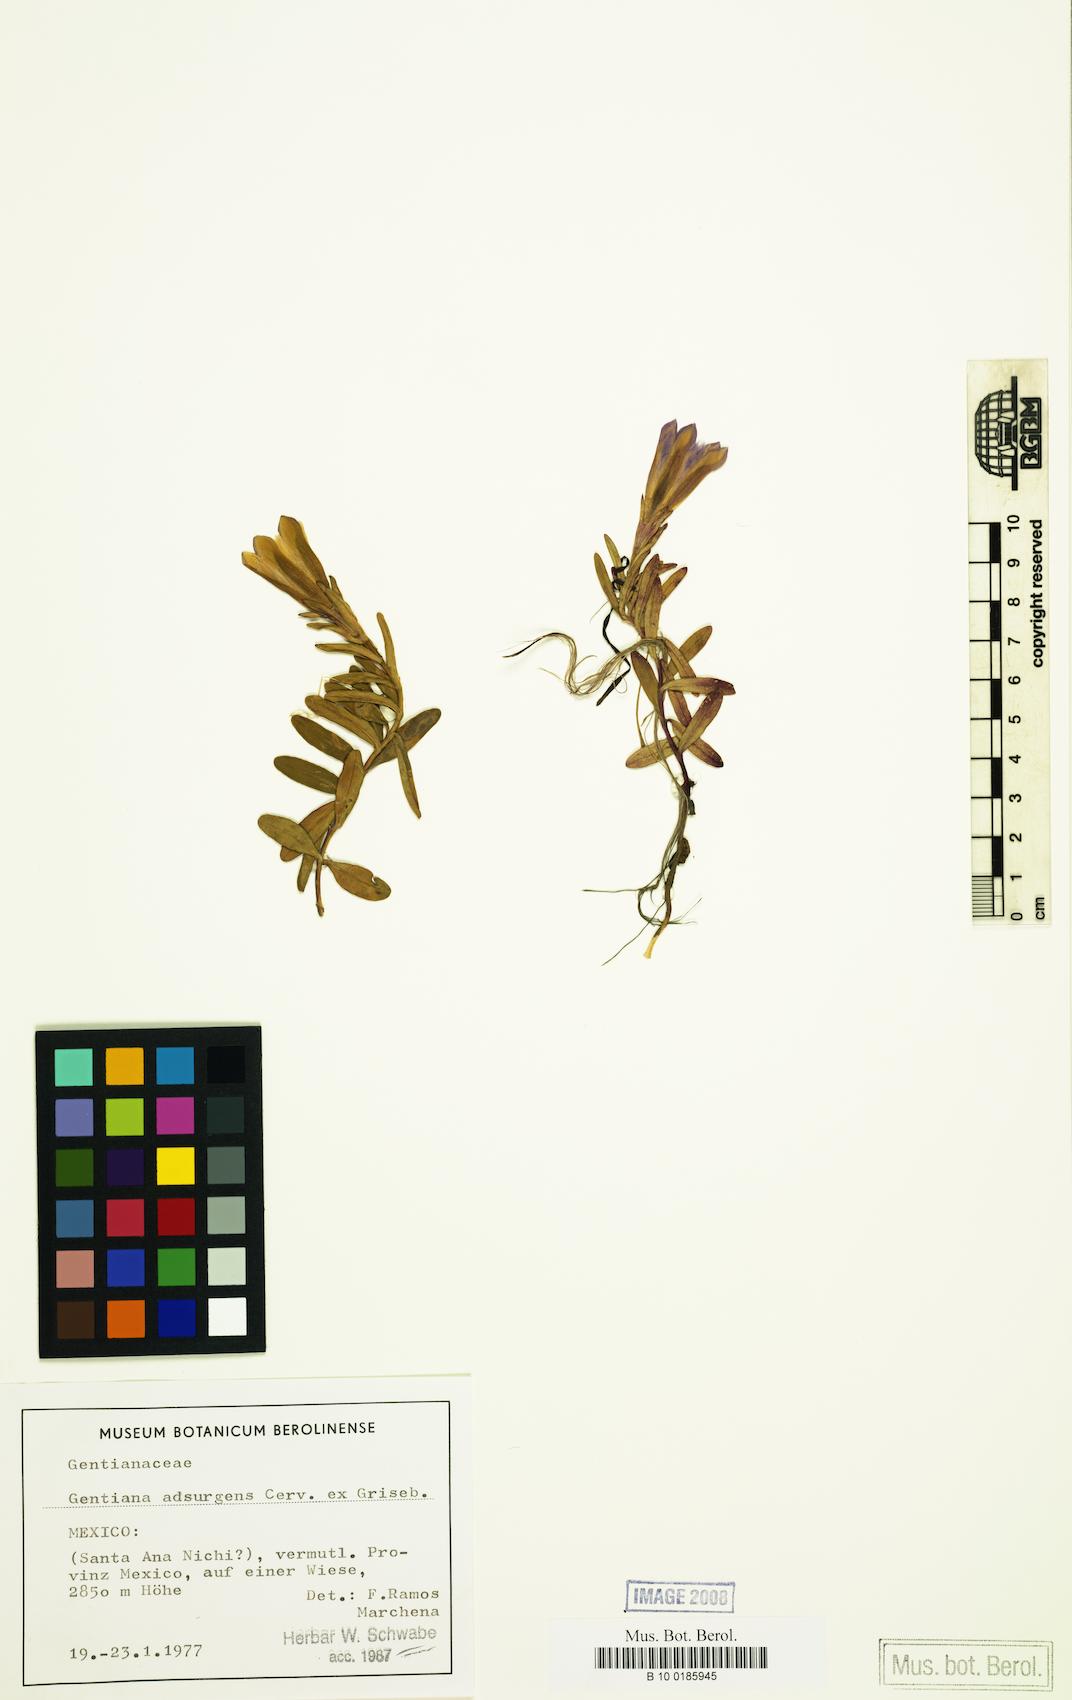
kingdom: Plantae
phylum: Tracheophyta
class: Magnoliopsida
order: Gentianales
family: Gentianaceae
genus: Gentiana
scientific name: Gentiana bicuspidata
